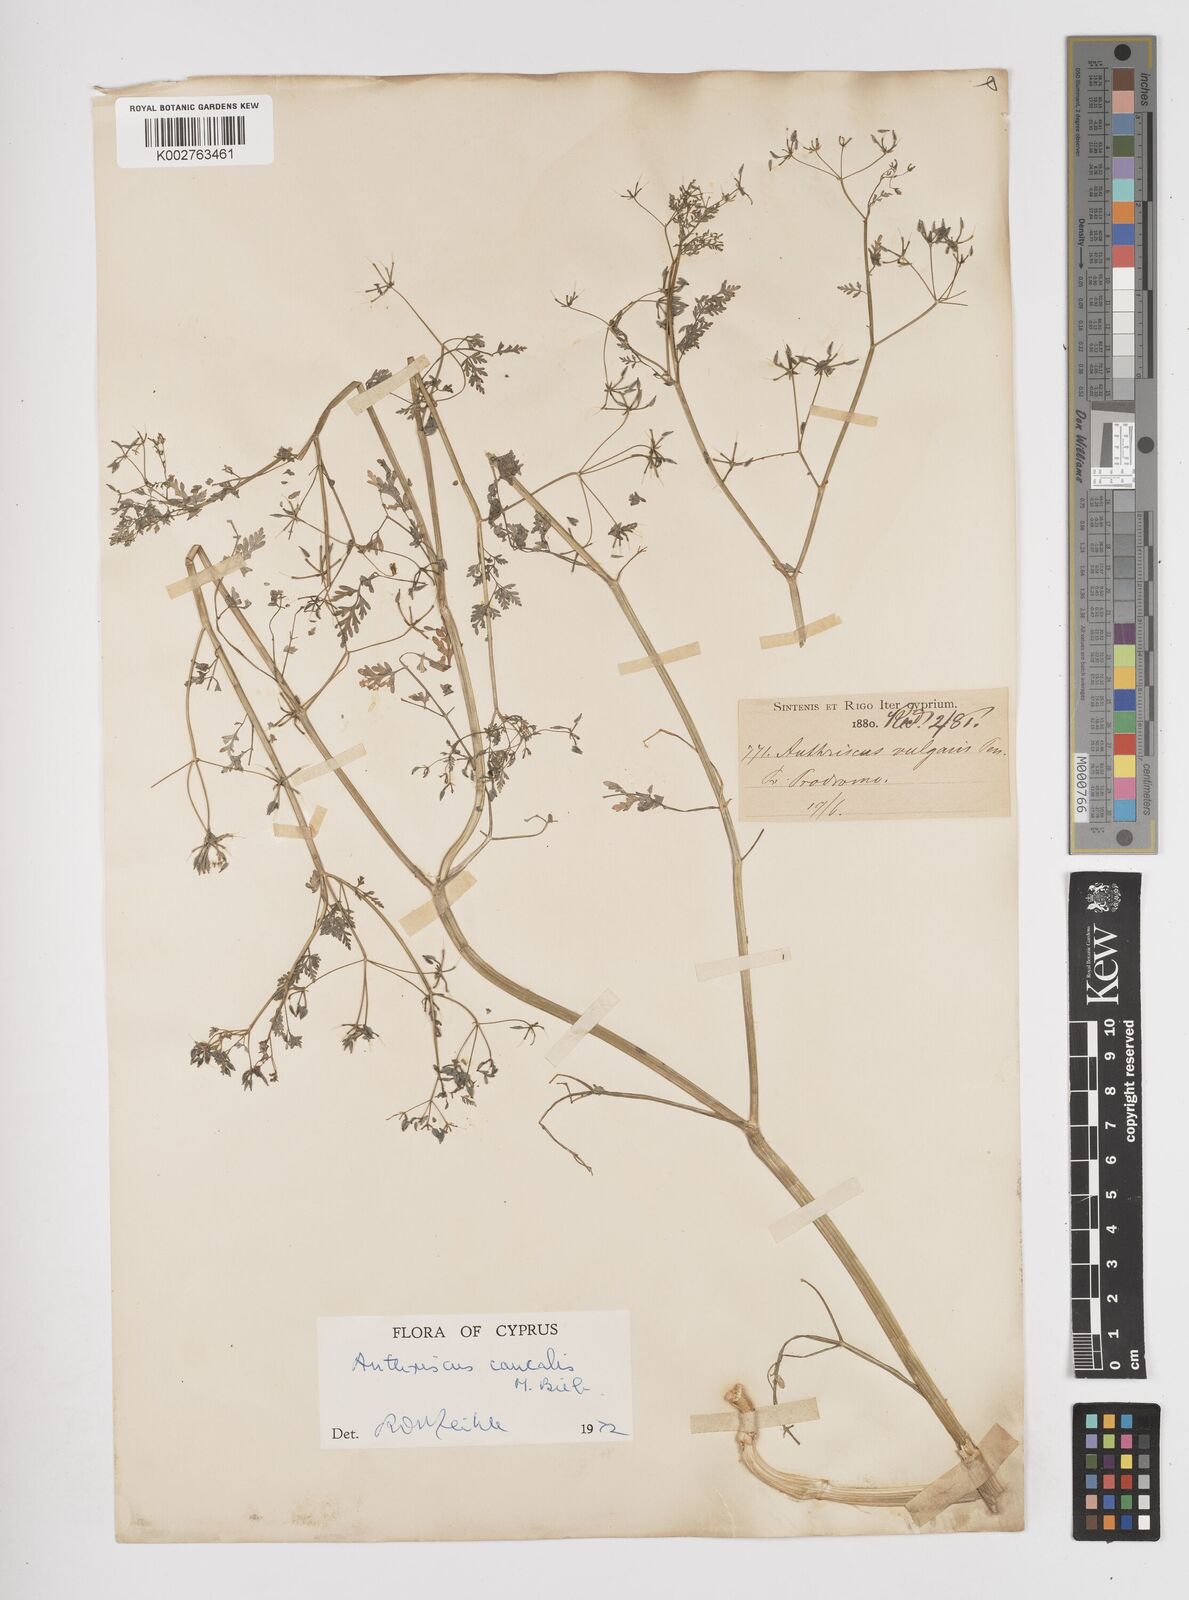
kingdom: Plantae
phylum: Tracheophyta
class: Magnoliopsida
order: Apiales
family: Apiaceae
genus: Anthriscus
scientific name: Anthriscus caucalis
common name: Bur chervil
